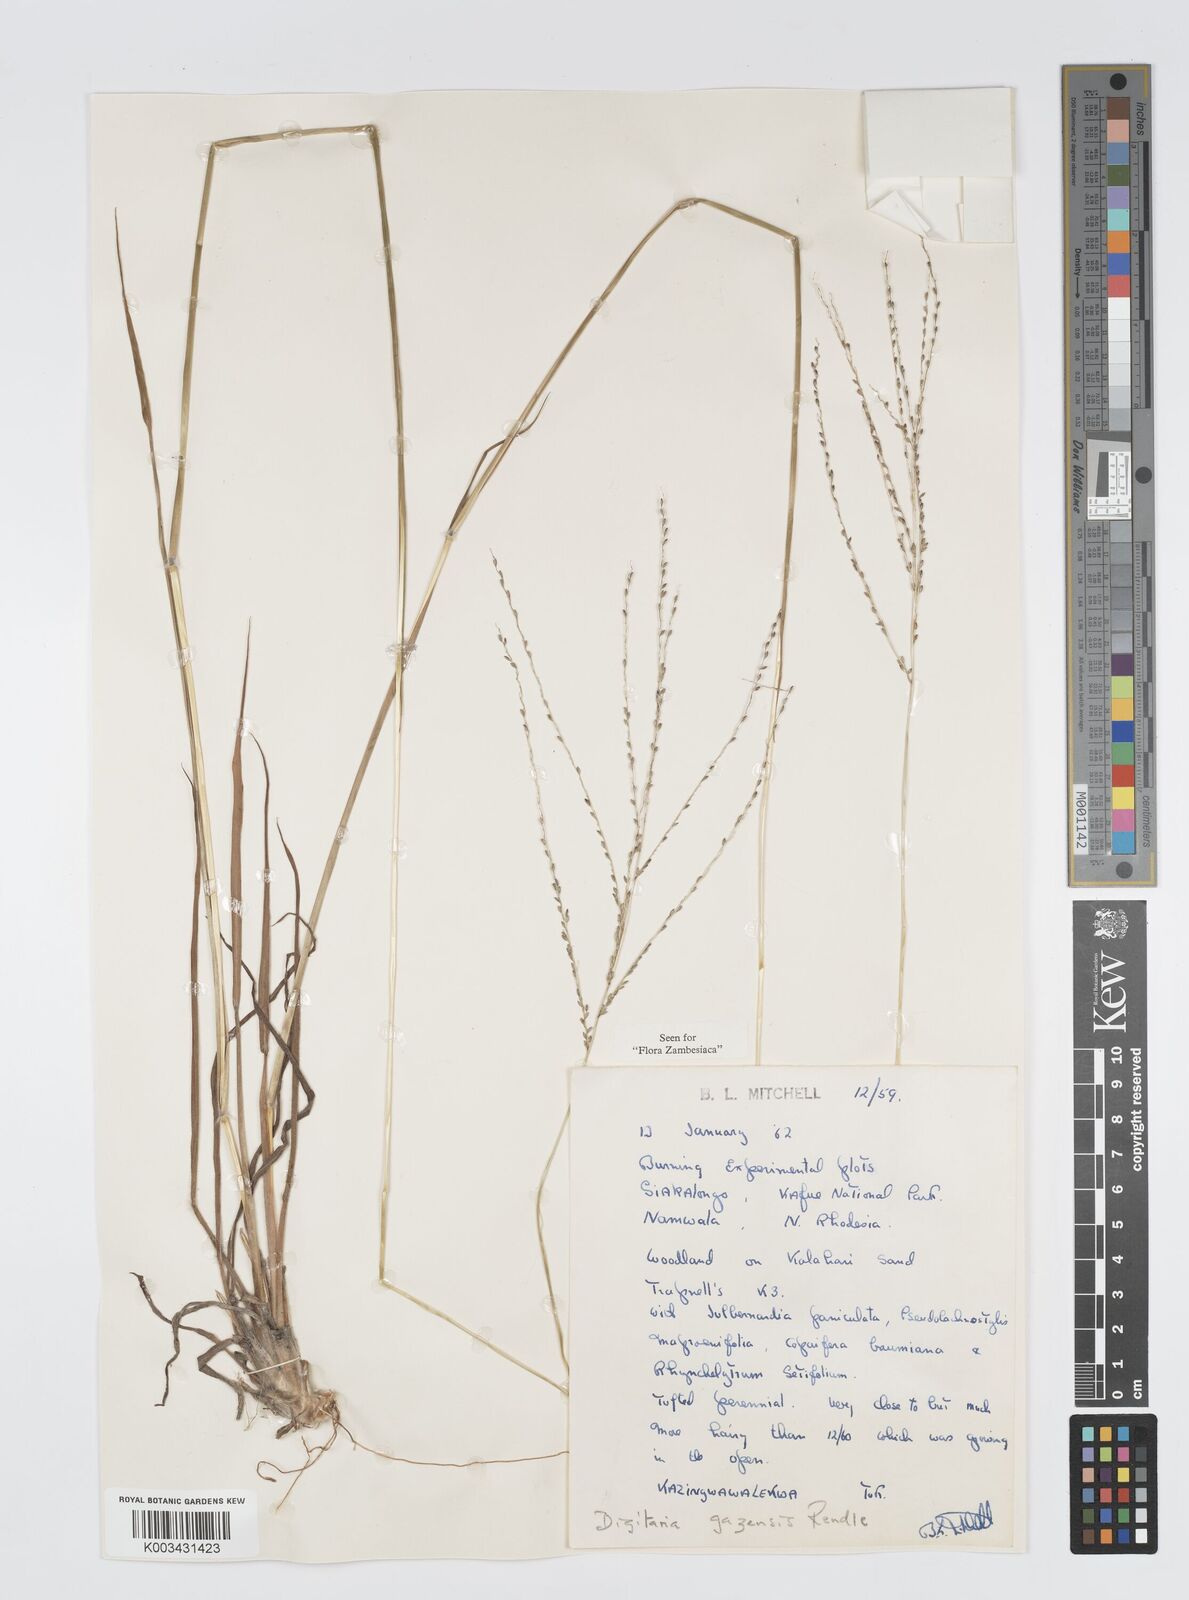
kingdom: Plantae
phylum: Tracheophyta
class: Liliopsida
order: Poales
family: Poaceae
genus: Digitaria
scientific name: Digitaria gazensis
